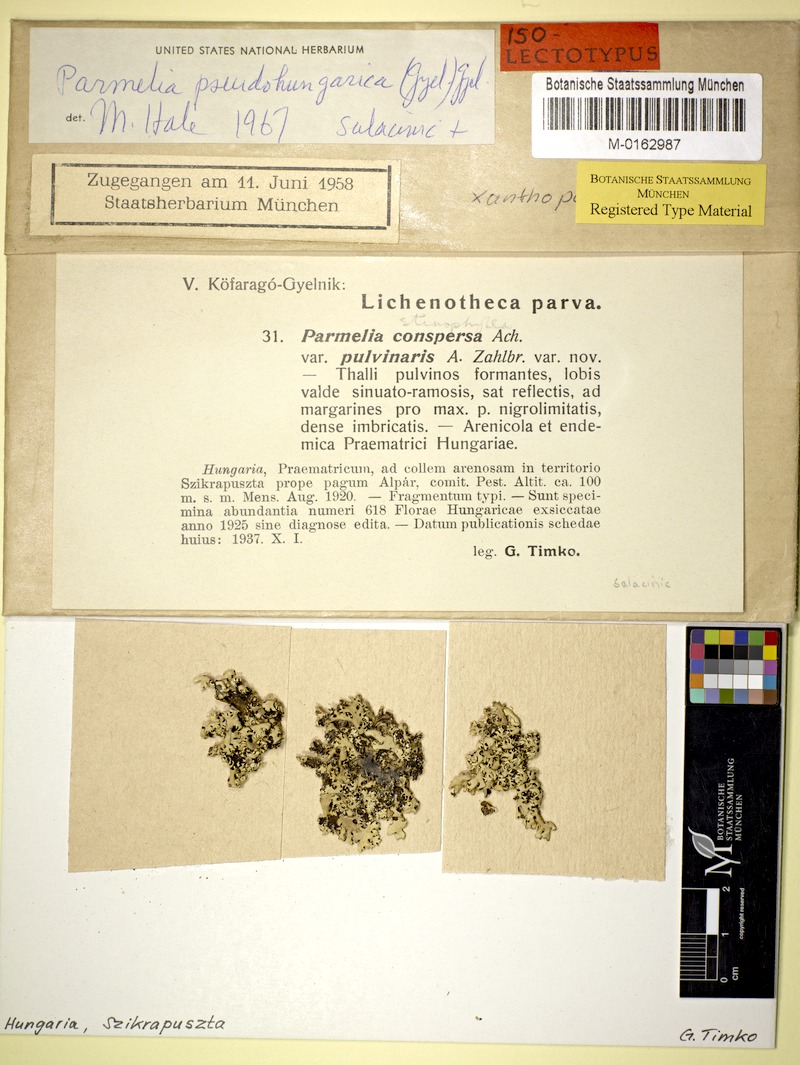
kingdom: Fungi
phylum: Ascomycota
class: Lecanoromycetes
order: Lecanorales
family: Parmeliaceae
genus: Xanthoparmelia
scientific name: Xanthoparmelia pseudohungarica
